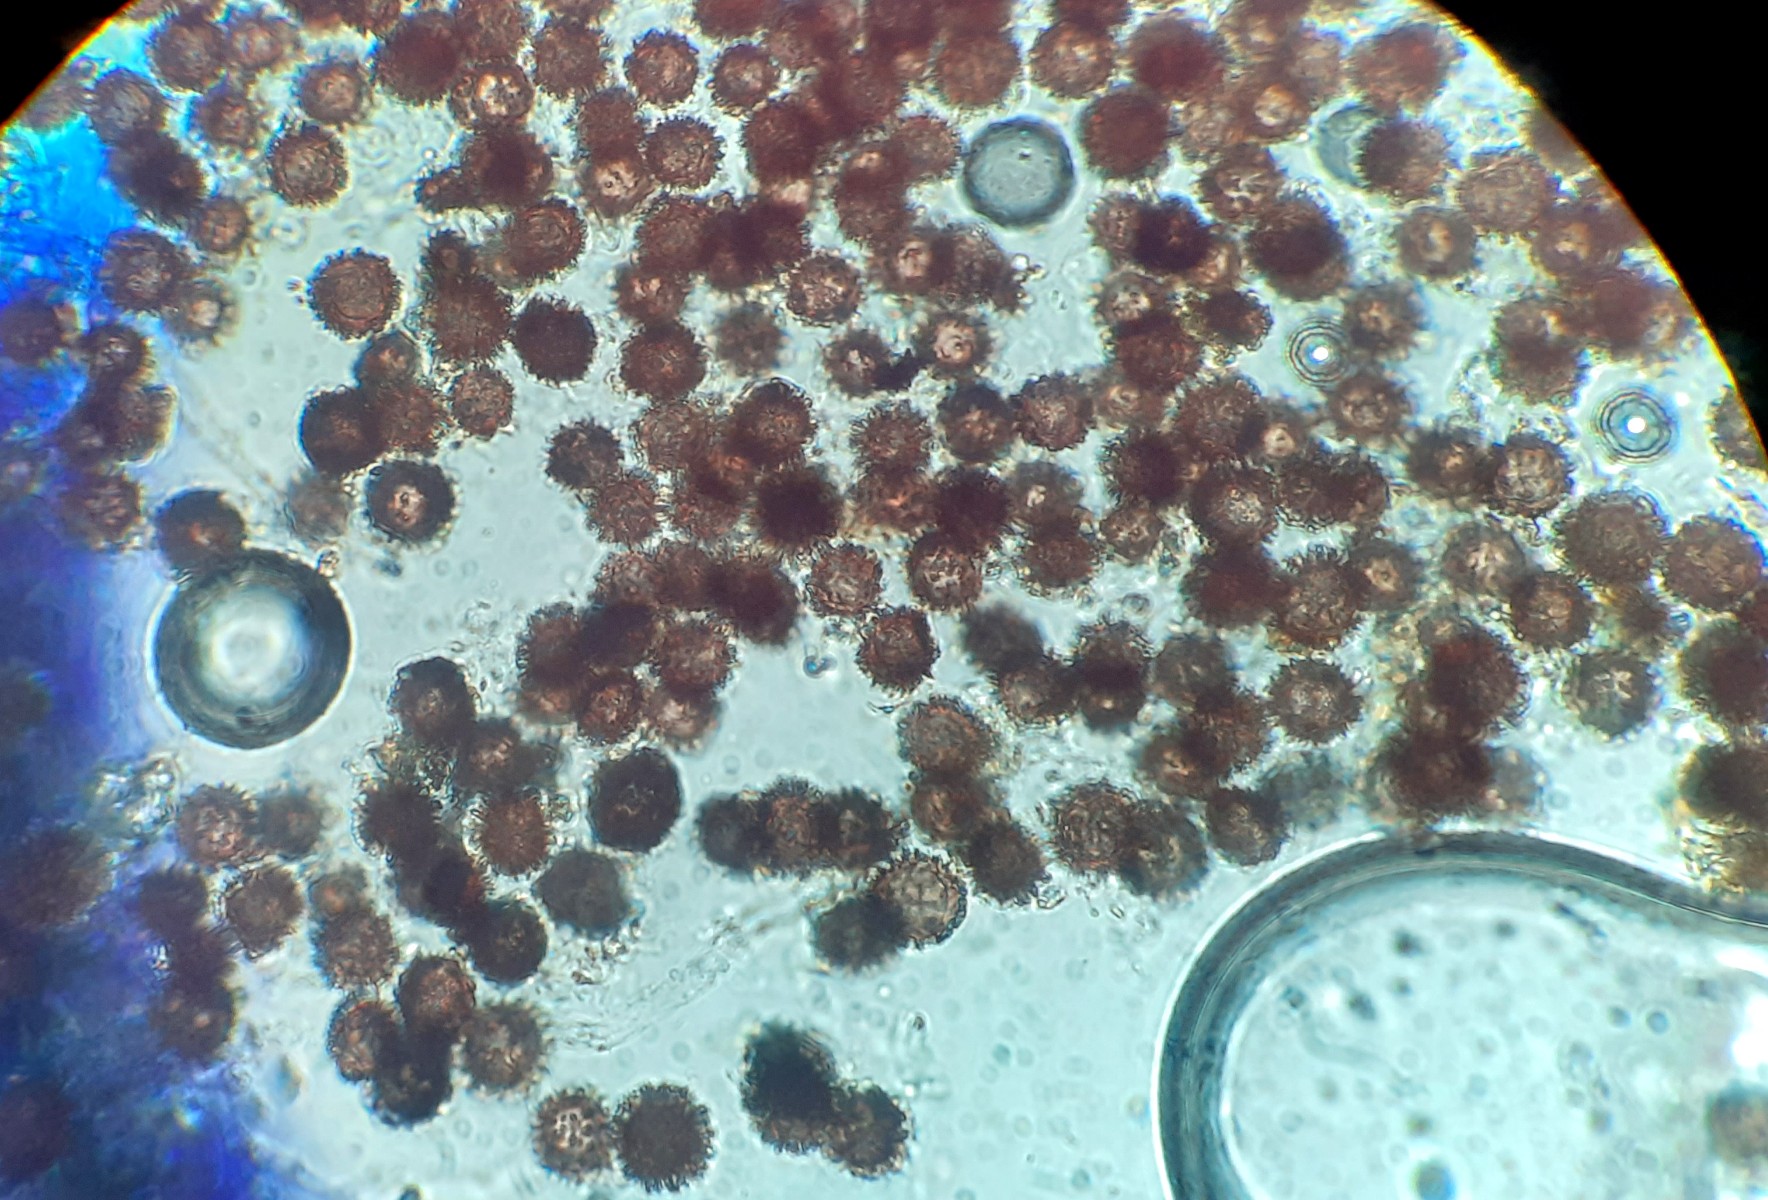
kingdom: Fungi
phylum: Basidiomycota
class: Agaricomycetes
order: Boletales
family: Sclerodermataceae
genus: Scleroderma
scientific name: Scleroderma
